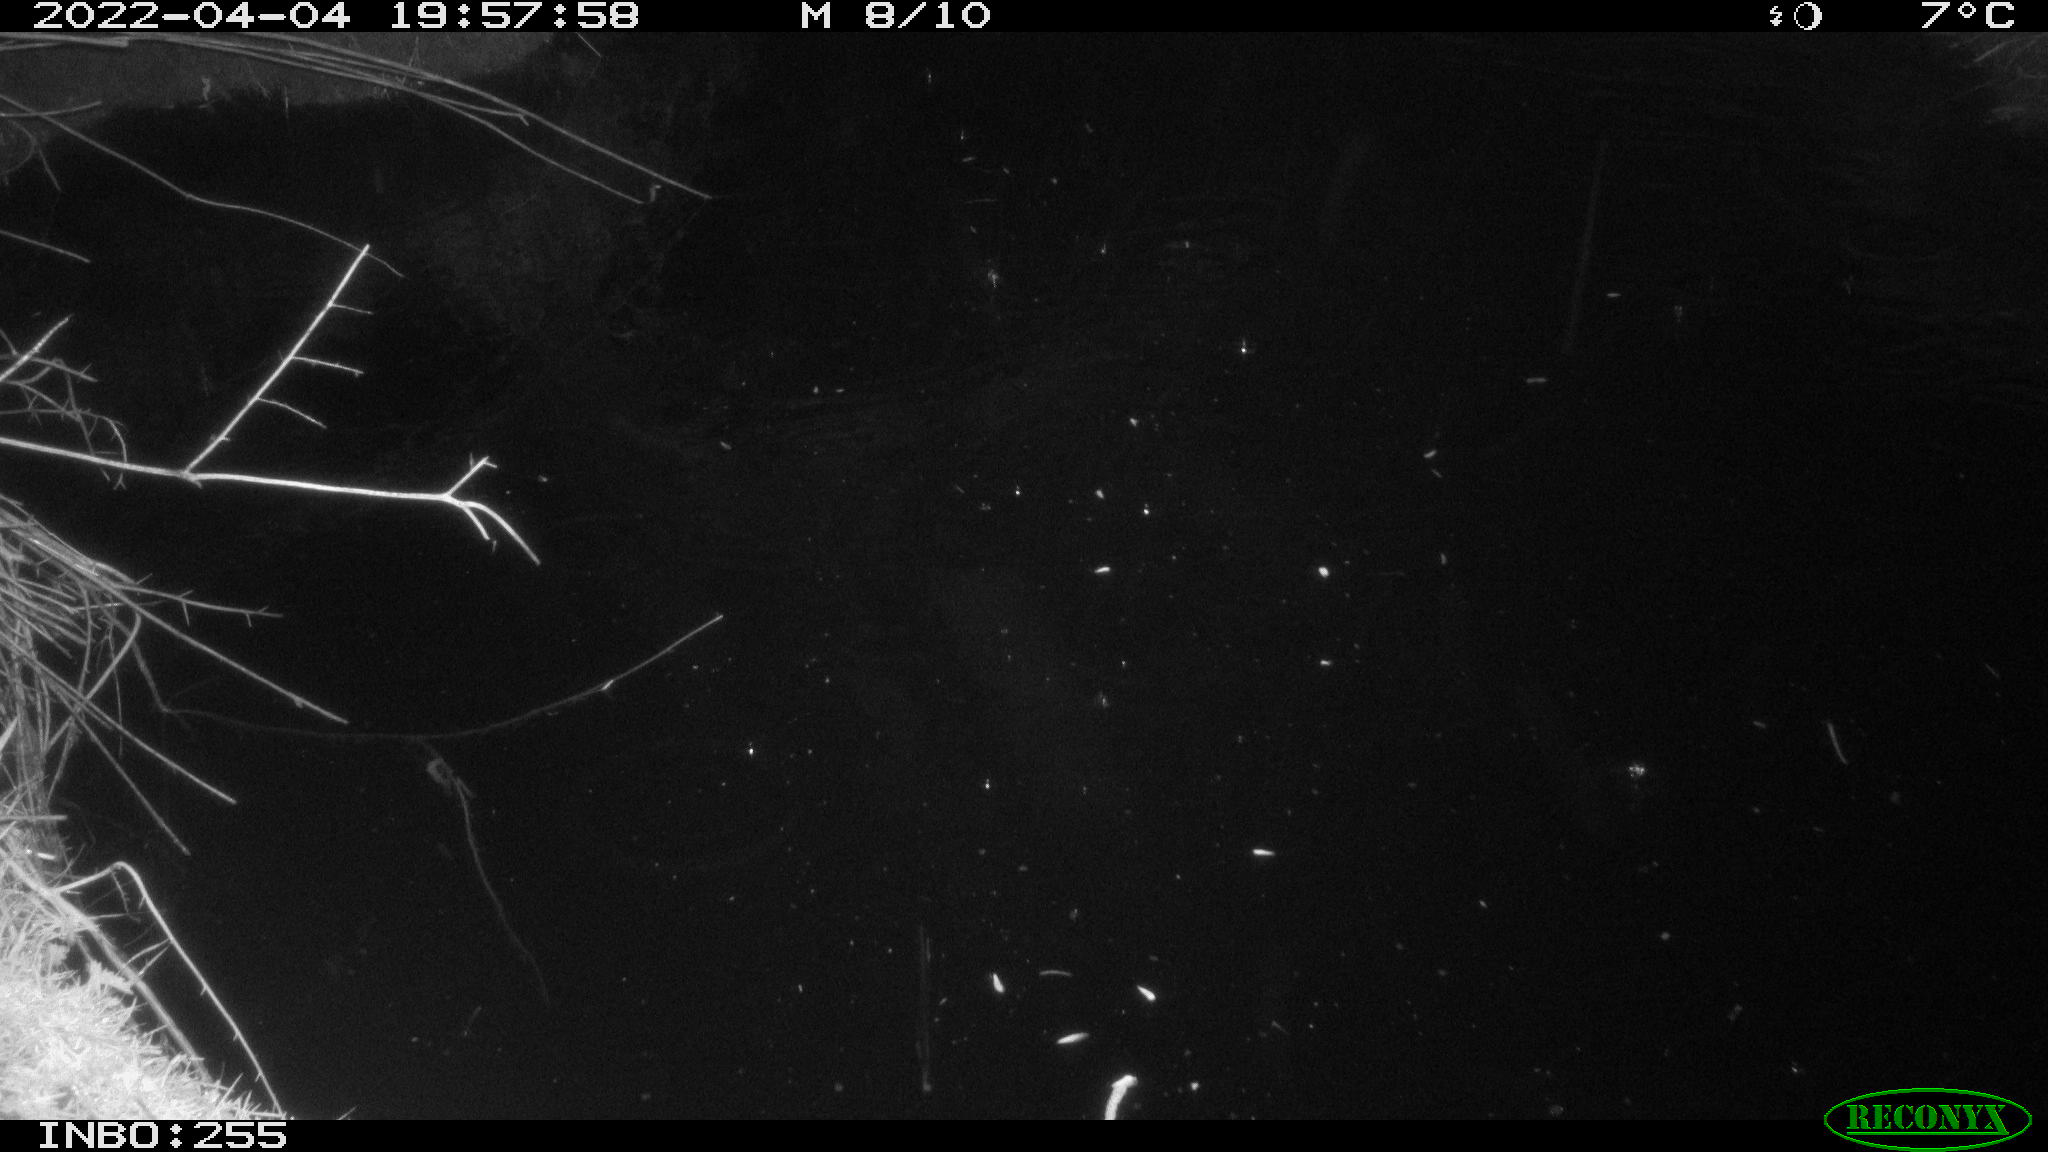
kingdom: Animalia
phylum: Chordata
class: Aves
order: Anseriformes
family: Anatidae
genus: Anas
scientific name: Anas platyrhynchos
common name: Mallard
